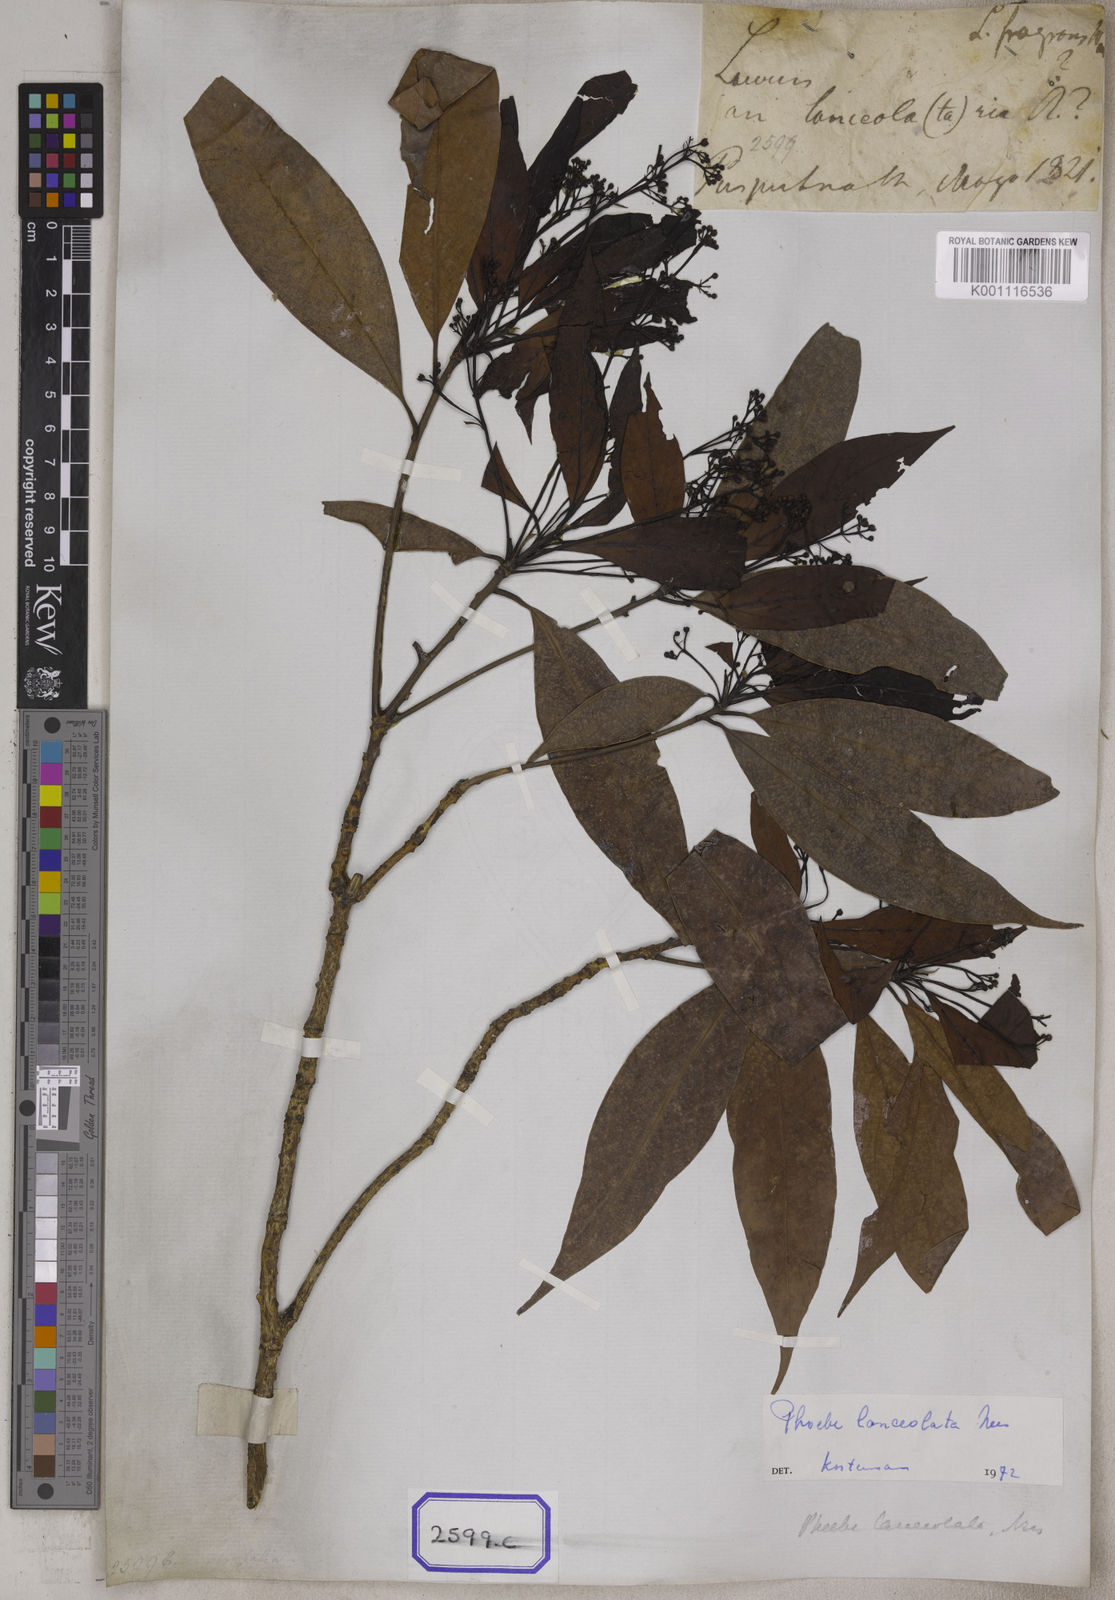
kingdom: Plantae
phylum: Tracheophyta
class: Magnoliopsida
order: Laurales
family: Lauraceae
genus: Laurus
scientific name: Laurus
